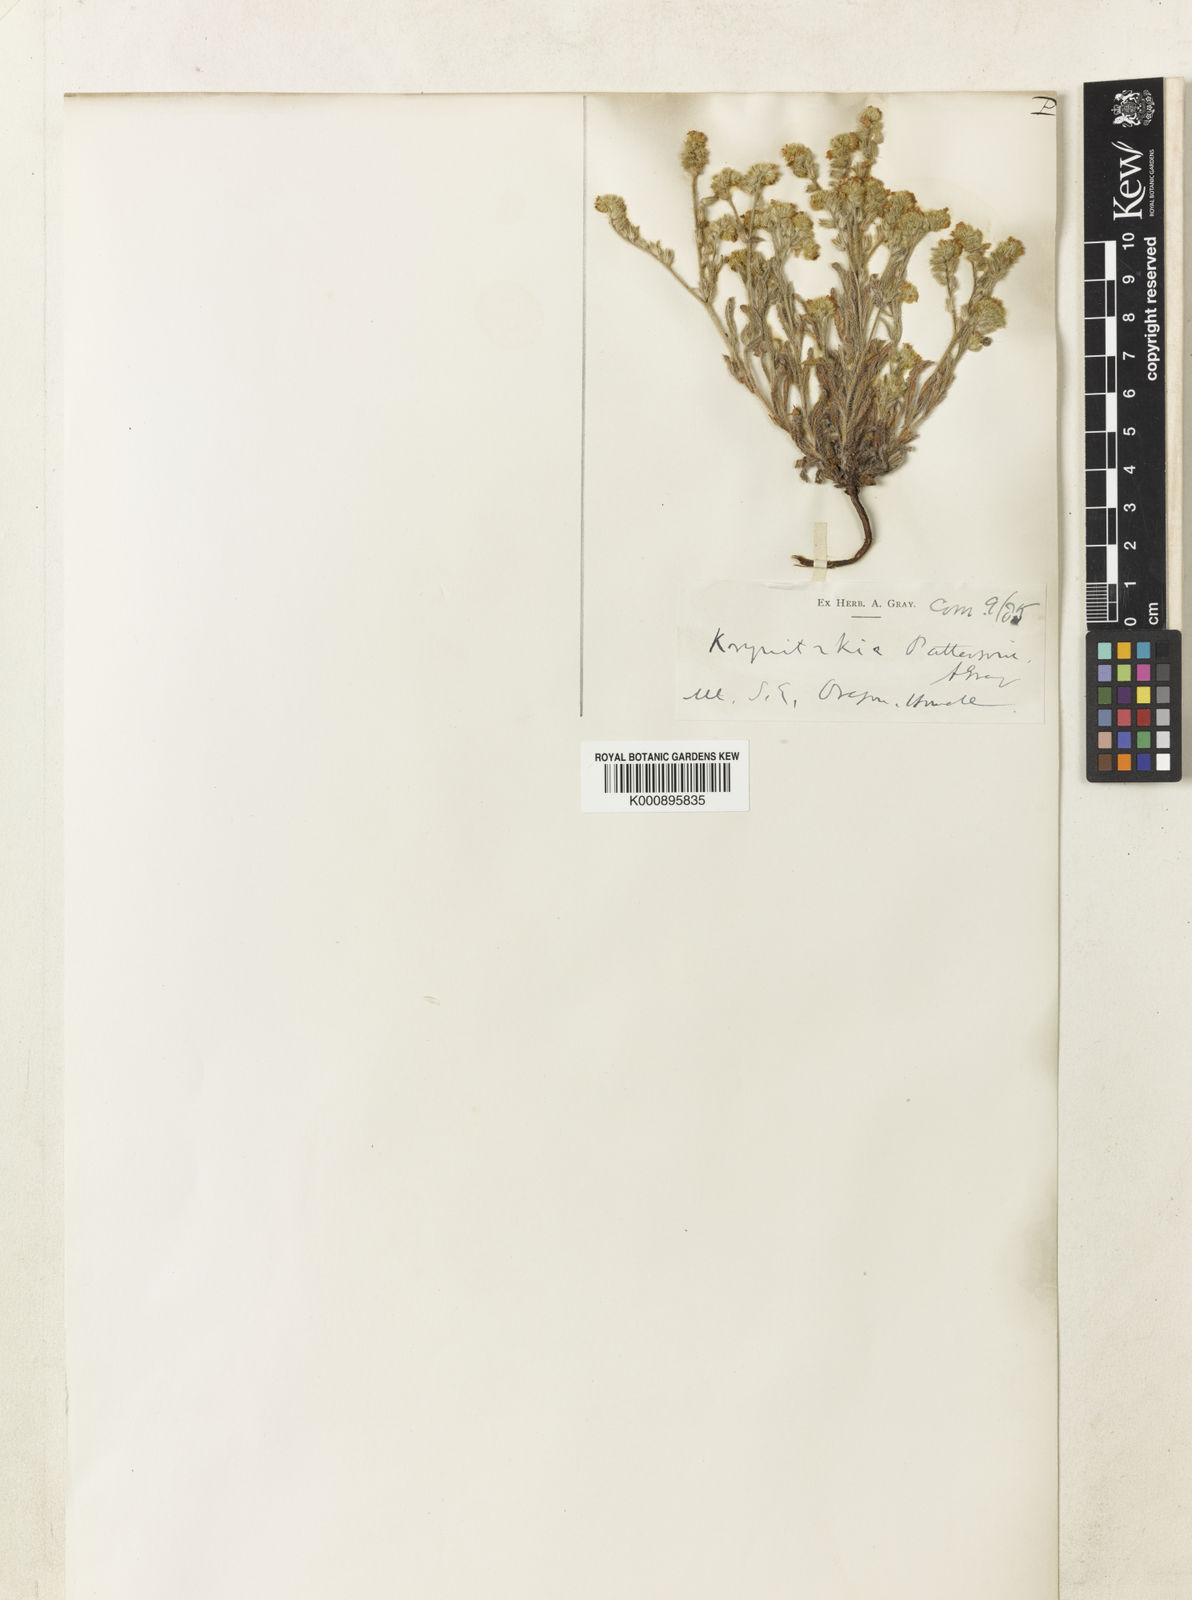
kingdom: Plantae
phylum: Tracheophyta
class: Magnoliopsida
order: Boraginales
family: Boraginaceae
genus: Cryptantha
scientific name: Cryptantha fendleri
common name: Sand-dune cryptantha
